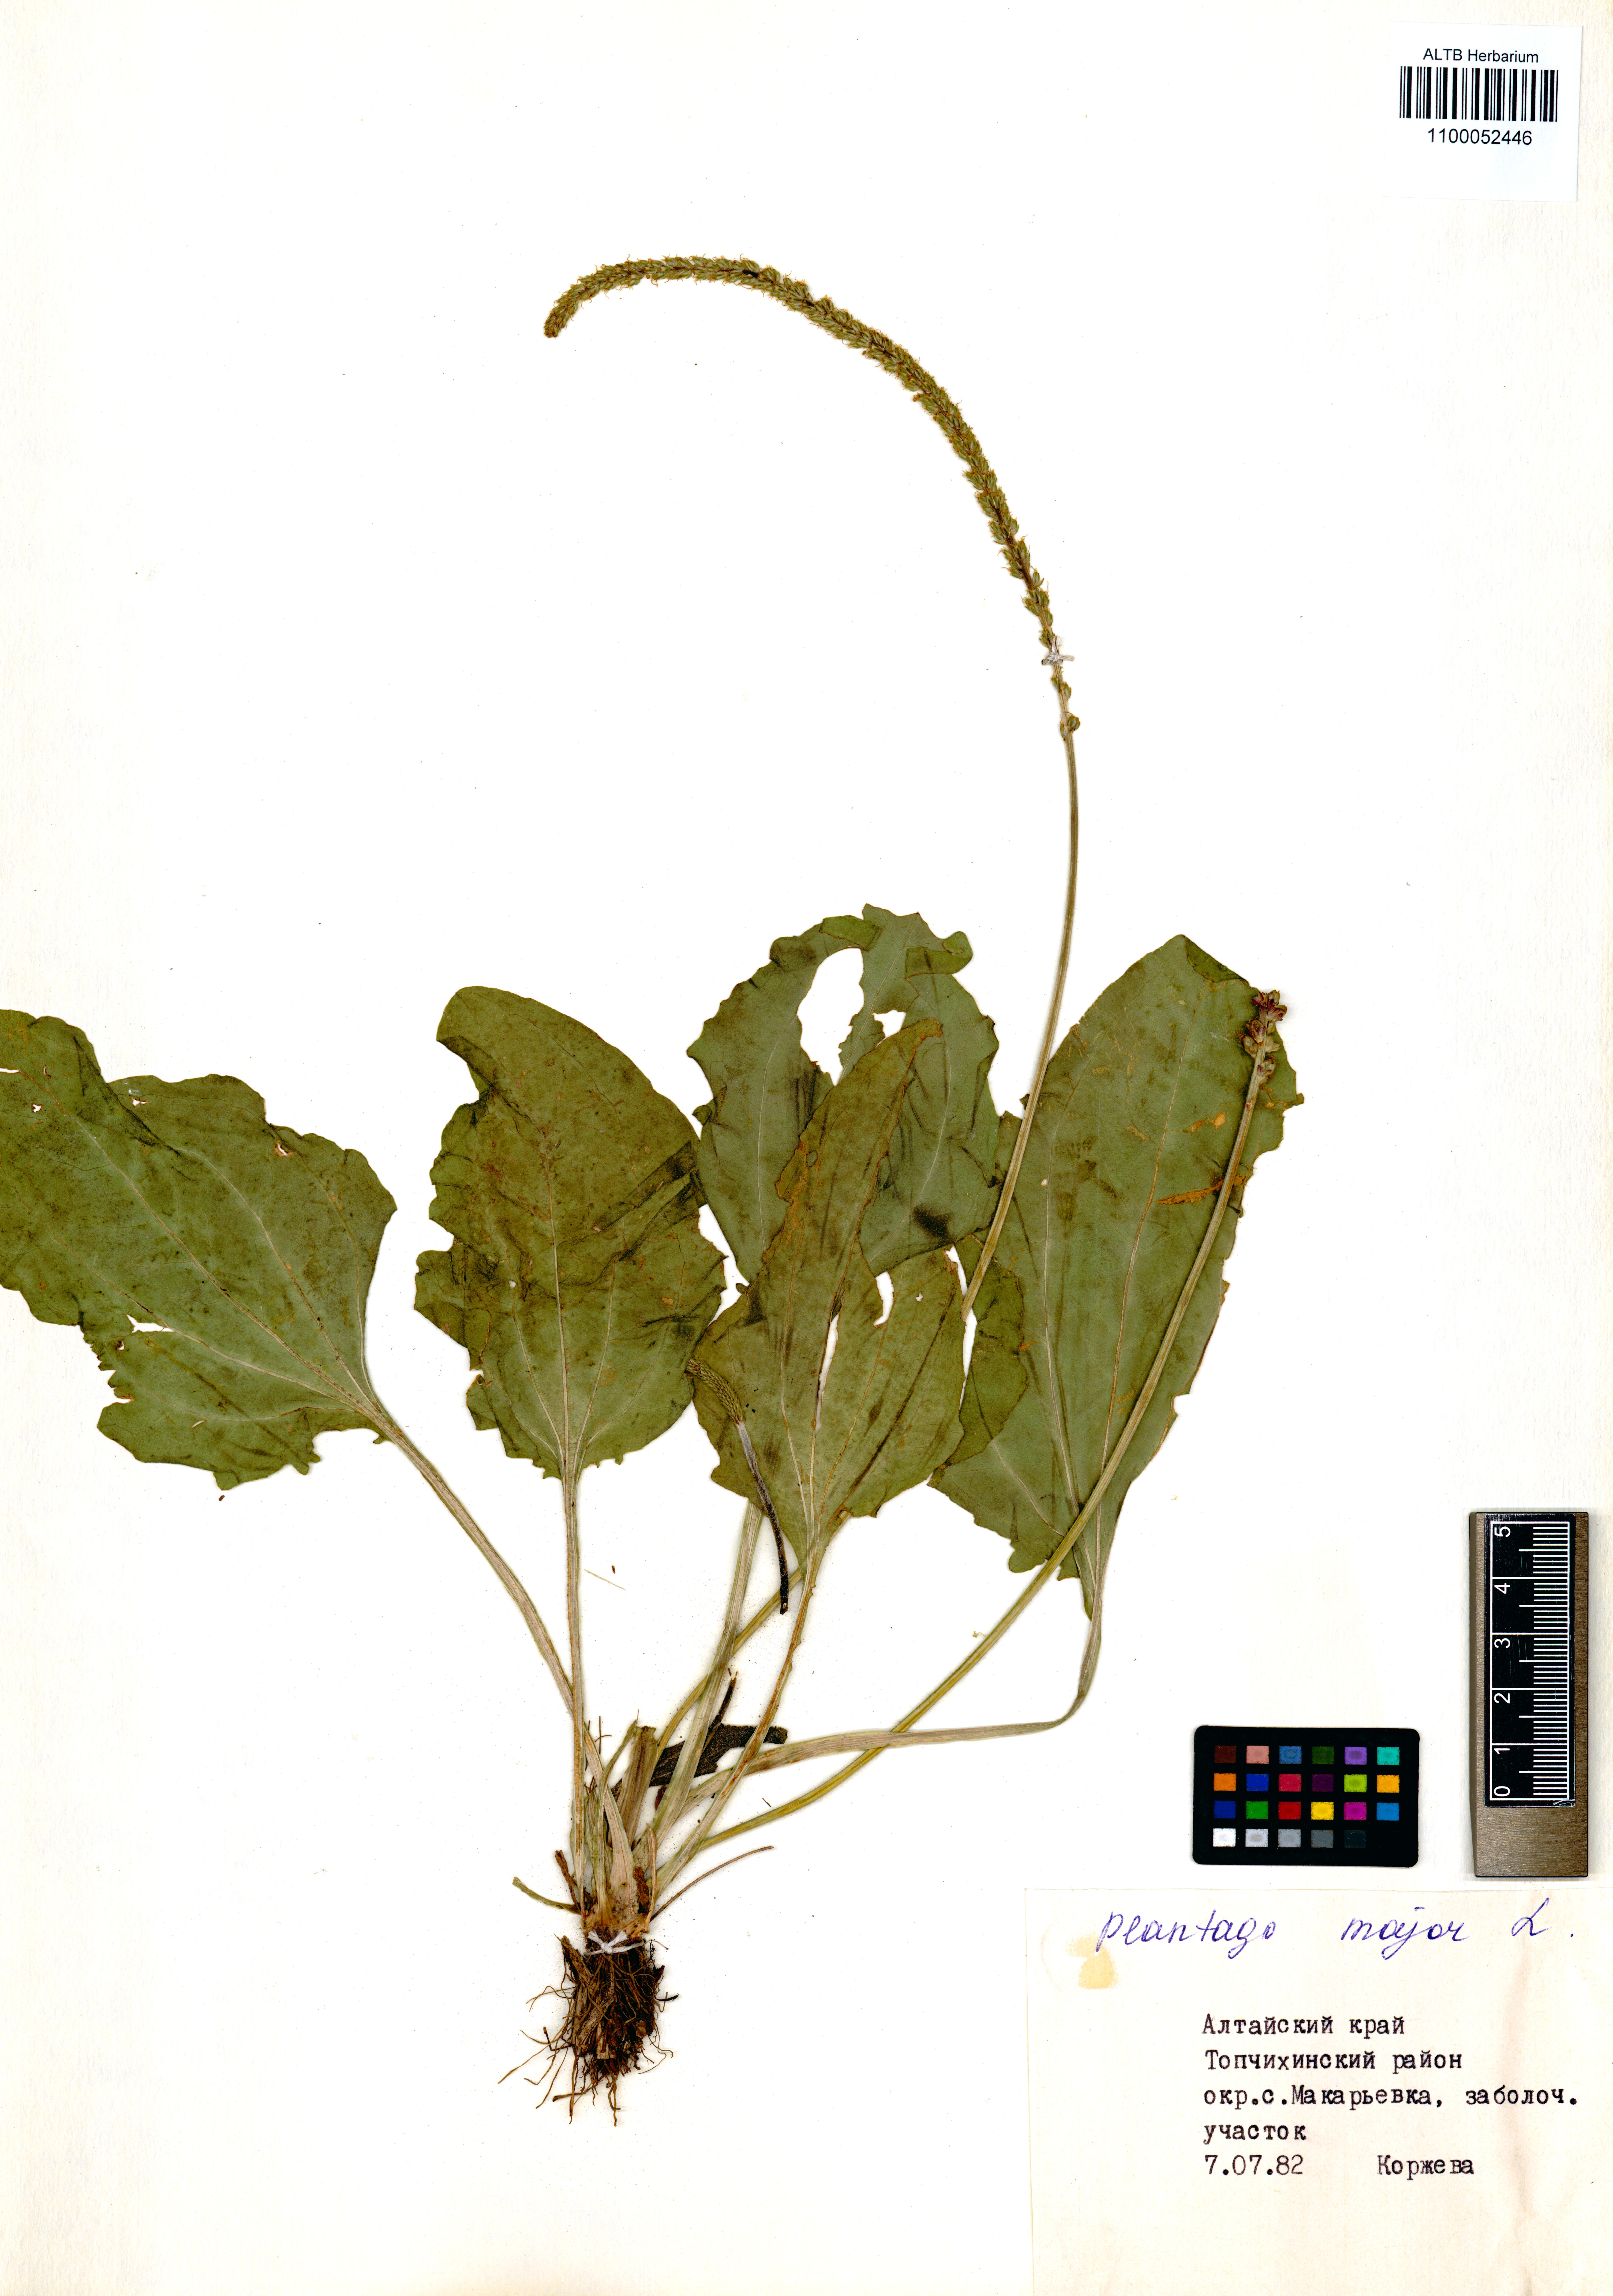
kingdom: Plantae
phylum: Tracheophyta
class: Magnoliopsida
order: Lamiales
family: Plantaginaceae
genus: Plantago
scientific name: Plantago major
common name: Common plantain
